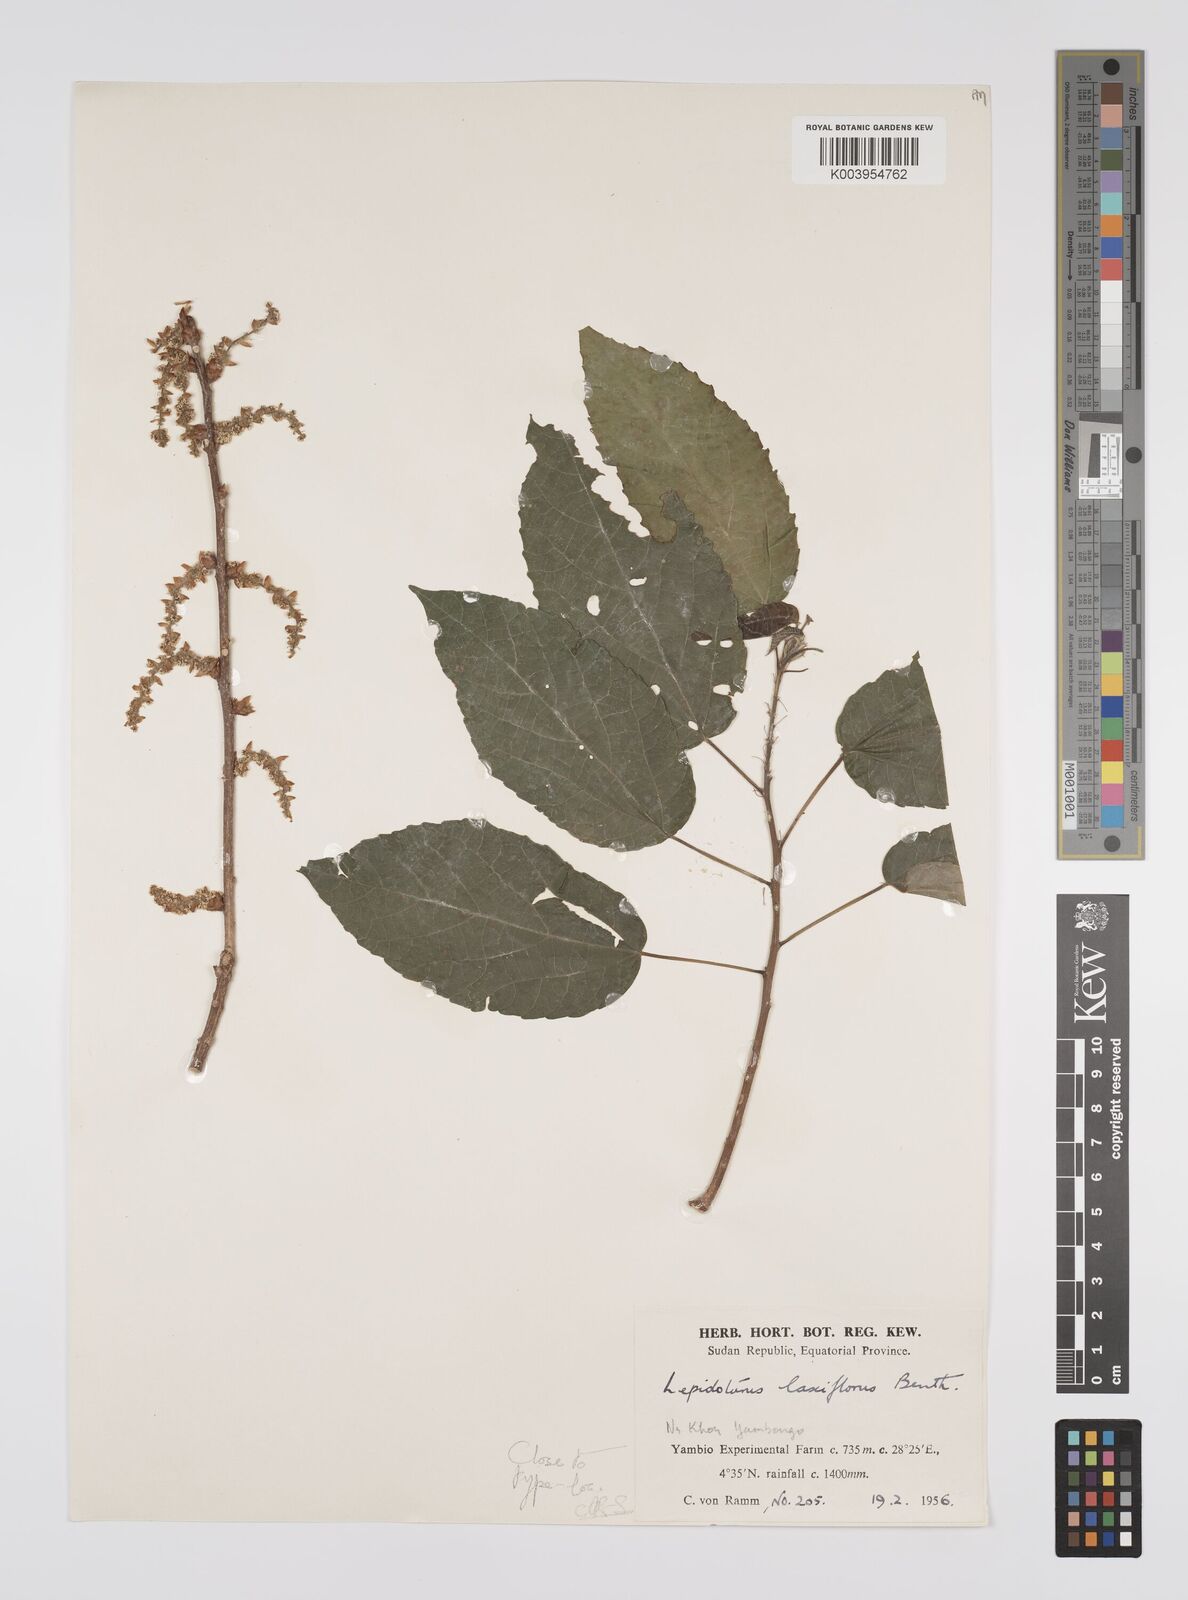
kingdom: Plantae
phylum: Tracheophyta
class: Magnoliopsida
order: Malpighiales
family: Euphorbiaceae
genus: Alchornea
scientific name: Alchornea laxiflora
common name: Lowveld bead-string
